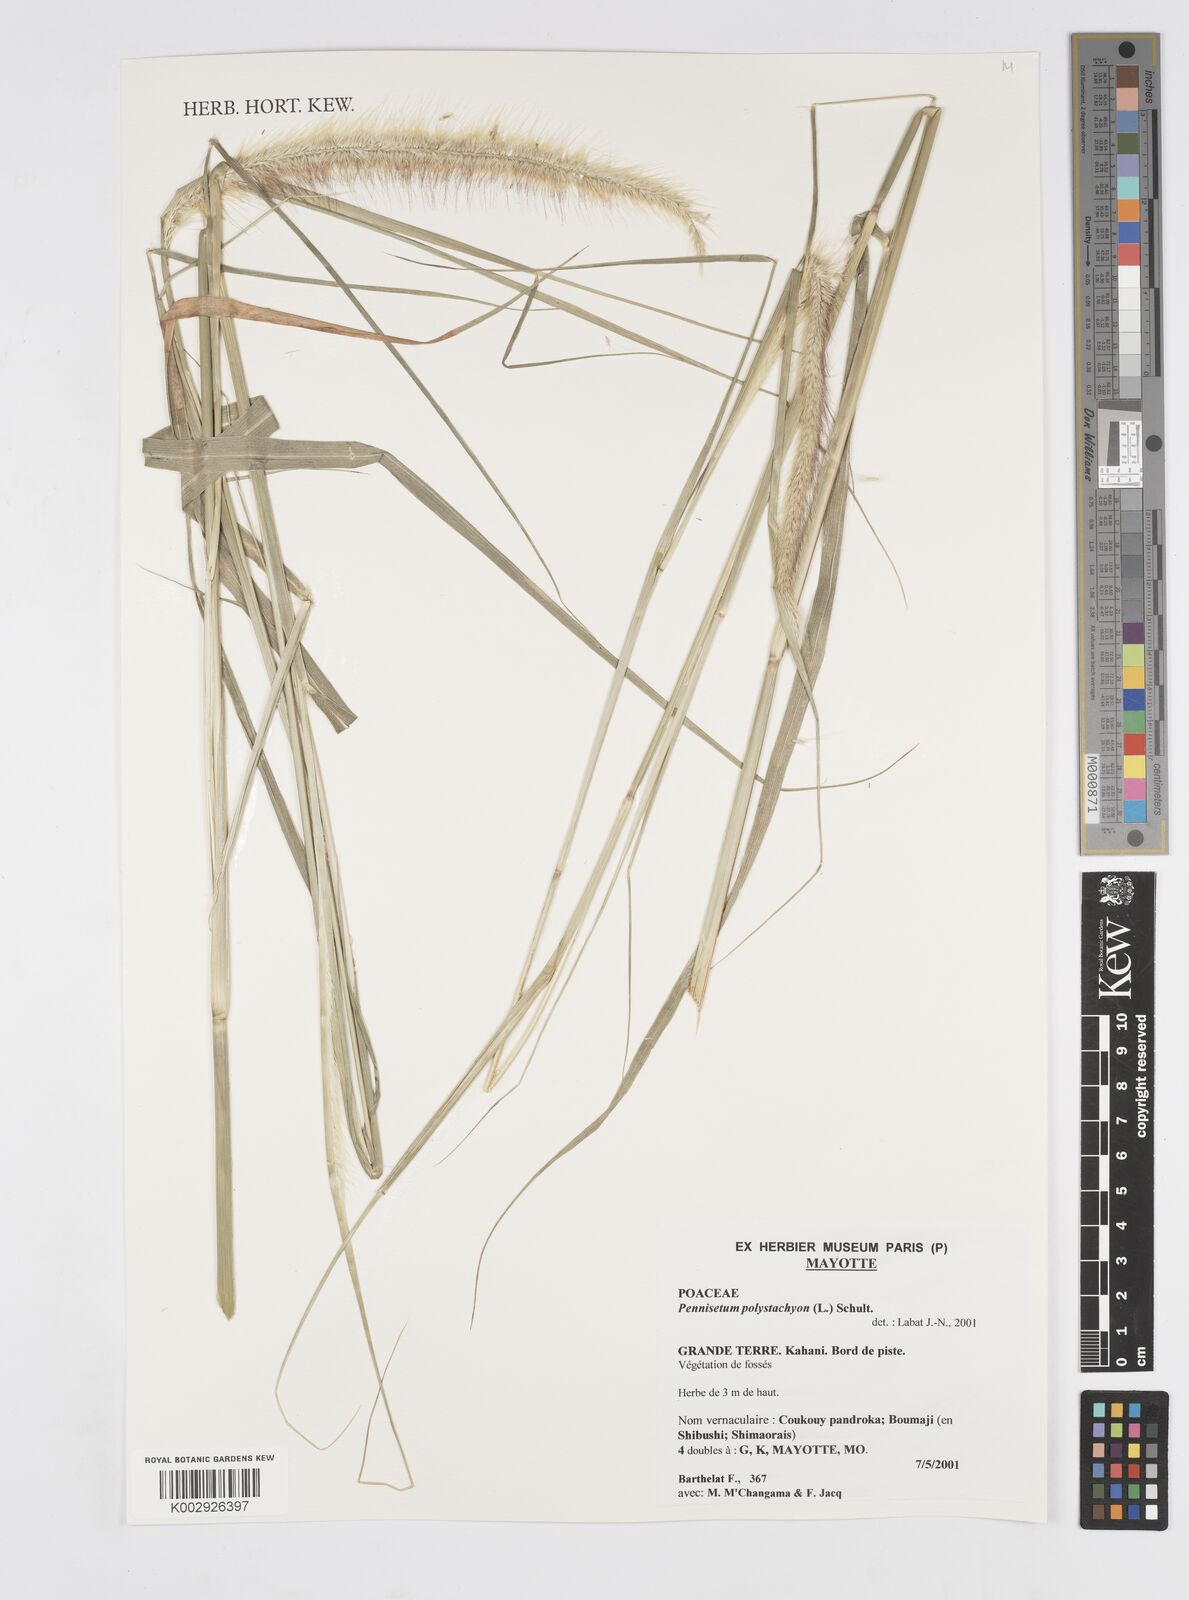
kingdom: Plantae
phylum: Tracheophyta
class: Liliopsida
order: Poales
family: Poaceae
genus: Setaria
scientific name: Setaria parviflora
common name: Knotroot bristle-grass
